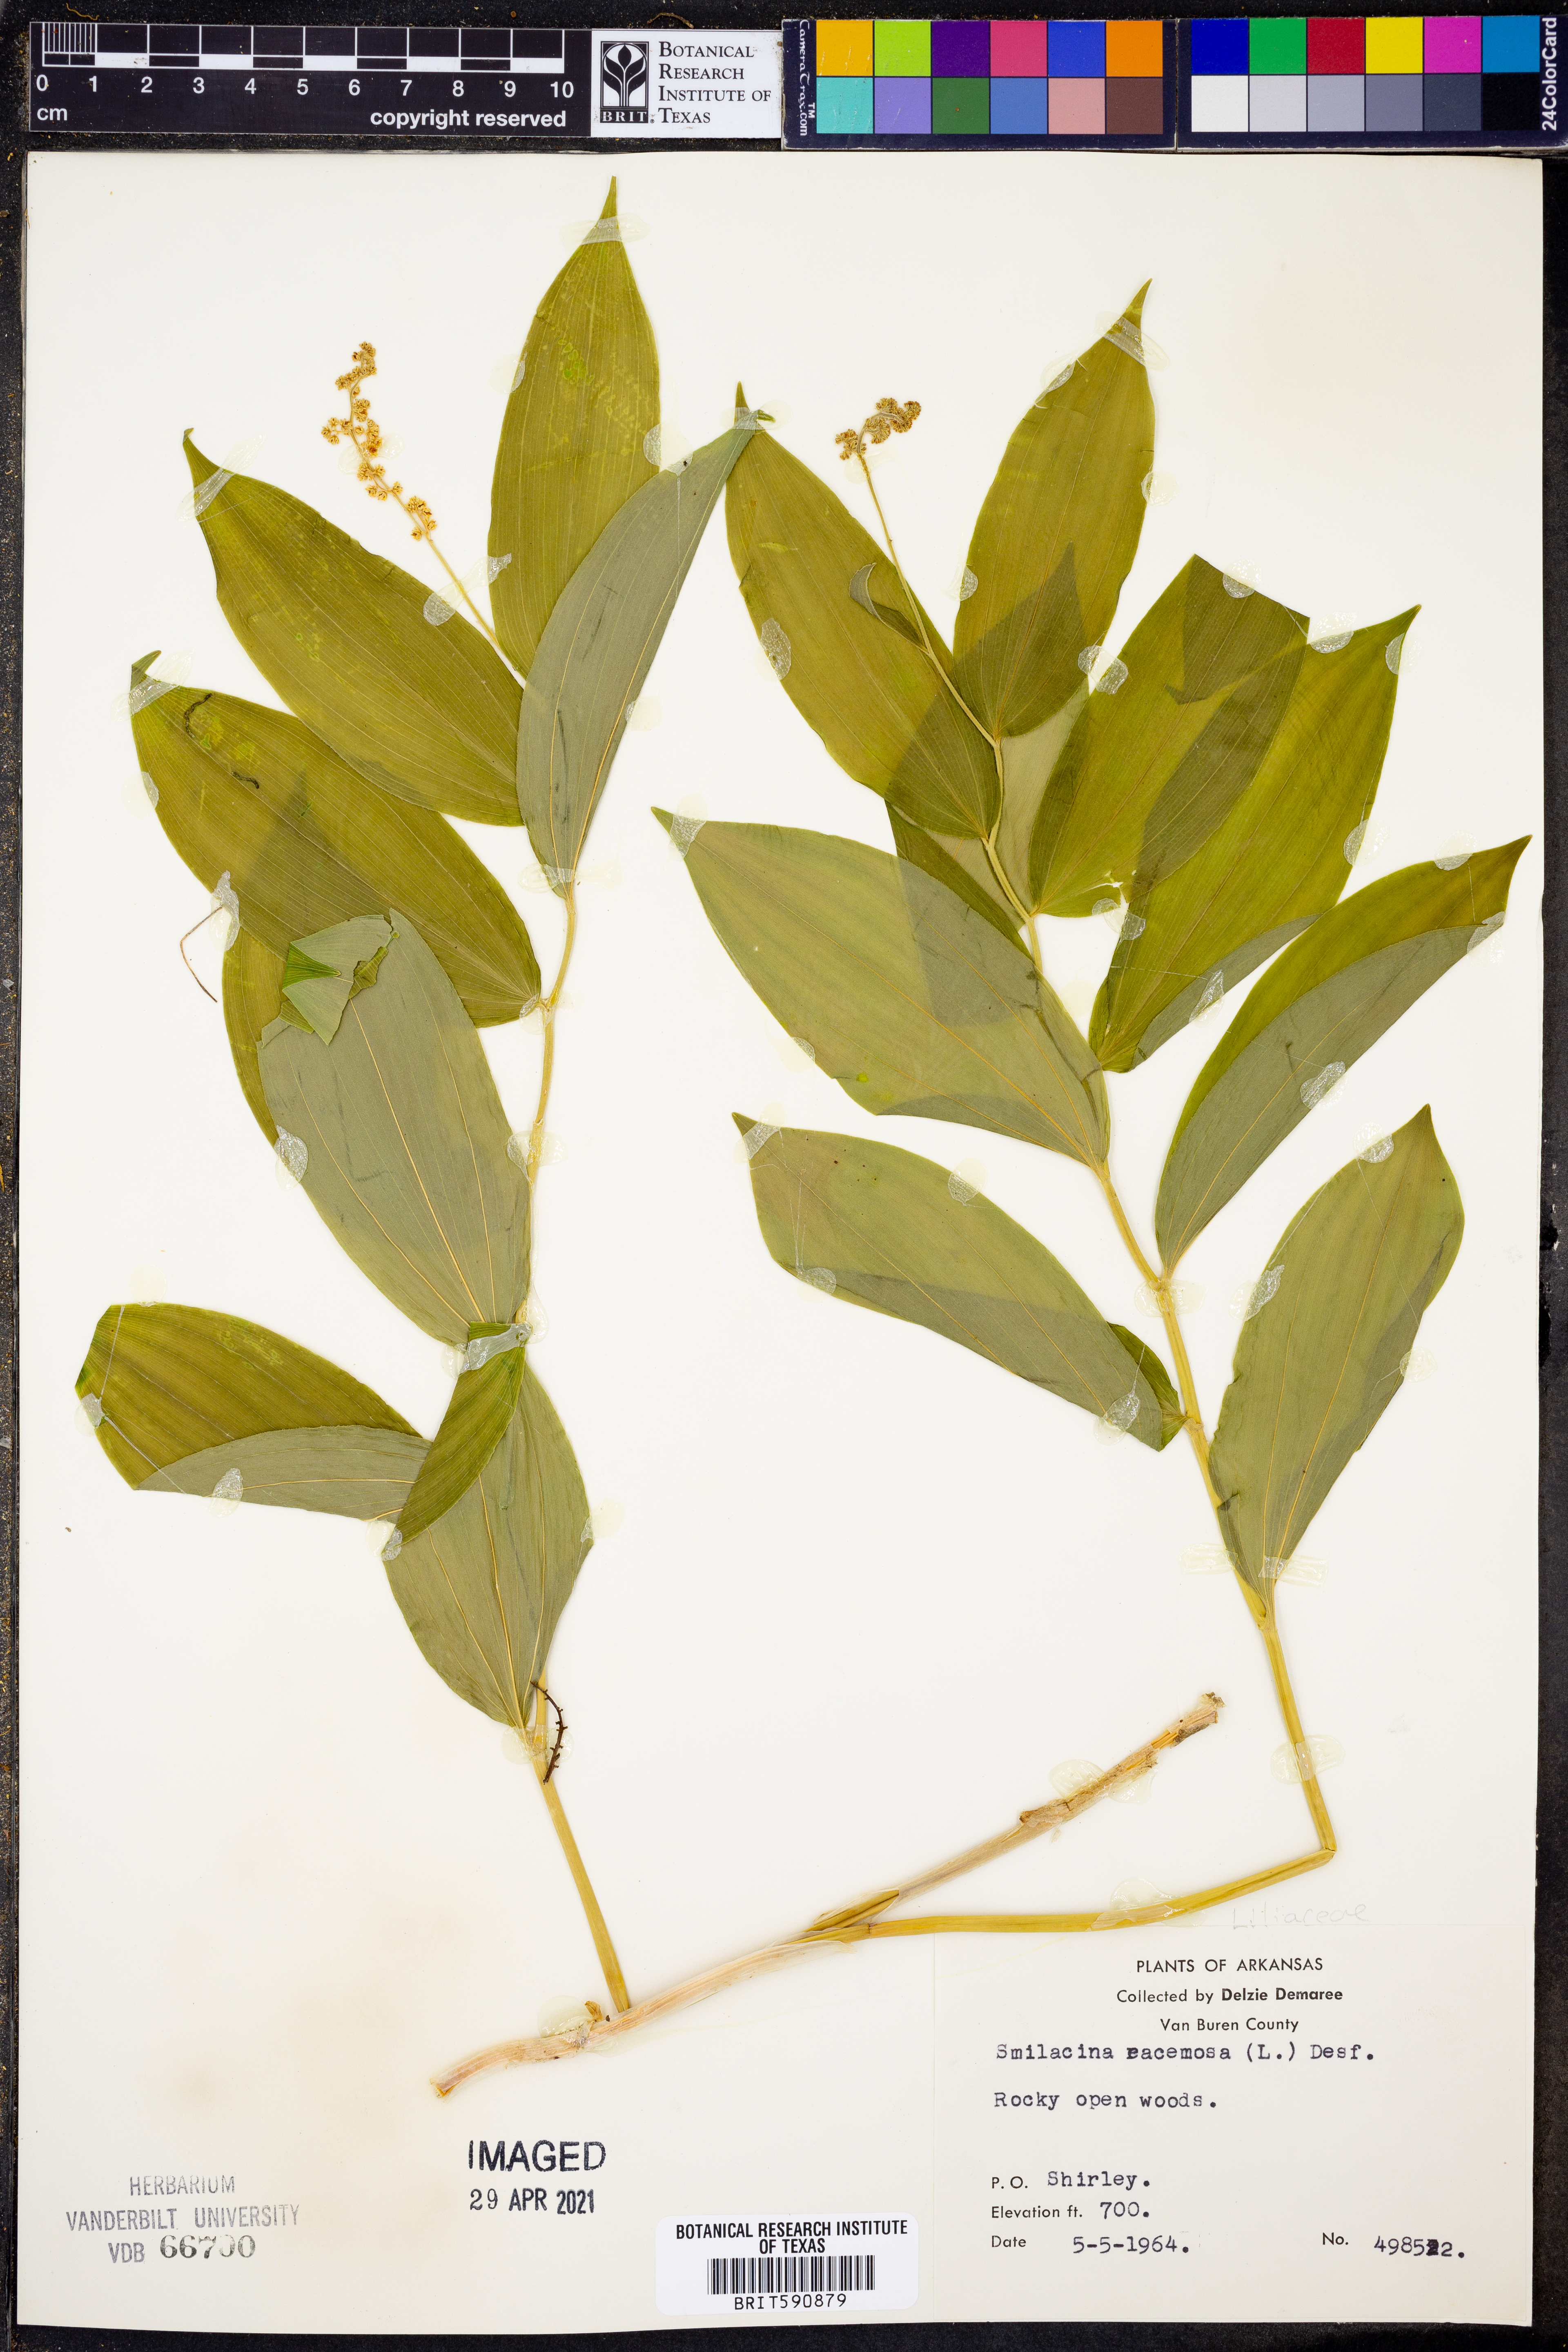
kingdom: Plantae
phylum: Tracheophyta
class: Liliopsida
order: Asparagales
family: Asparagaceae
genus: Maianthemum
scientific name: Maianthemum racemosum
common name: False spikenard
